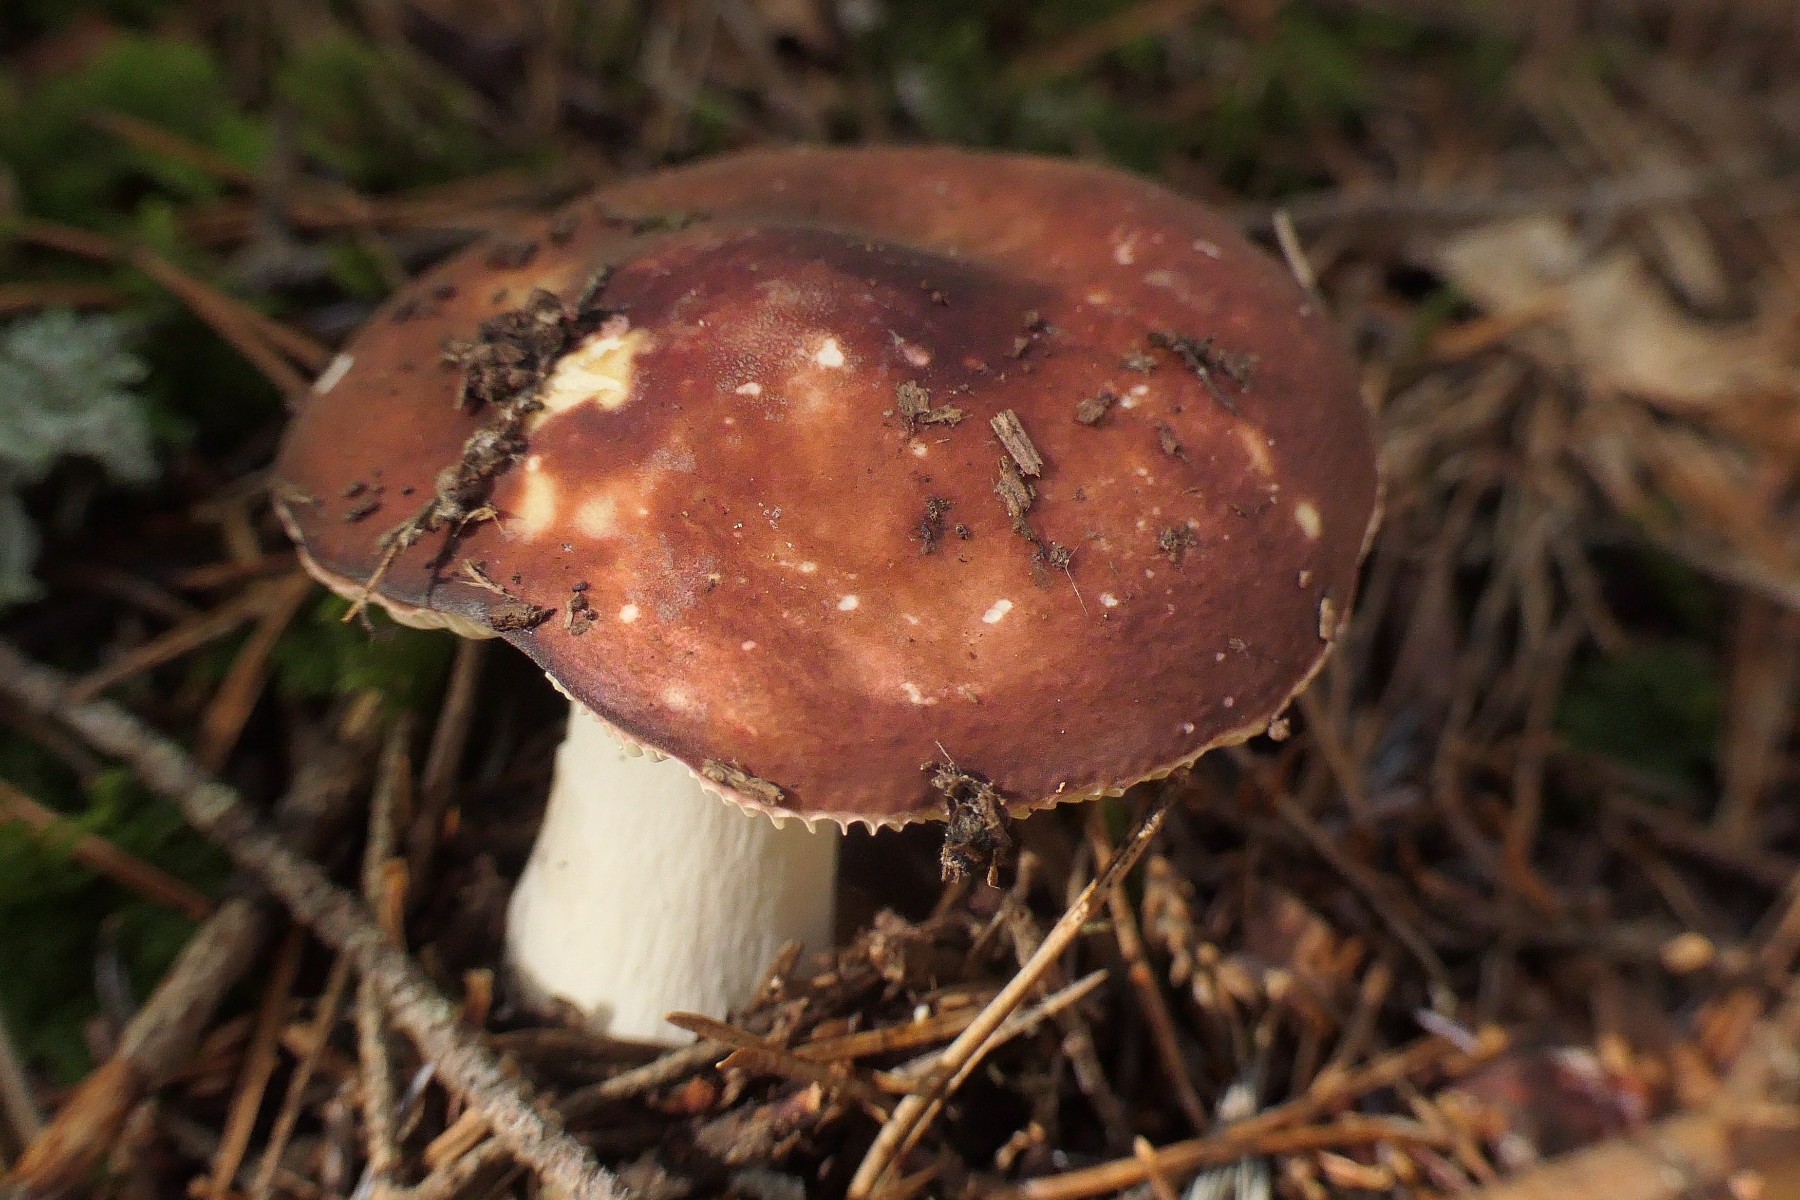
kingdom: Fungi
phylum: Basidiomycota
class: Agaricomycetes
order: Russulales
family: Russulaceae
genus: Russula
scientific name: Russula integra
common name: mandel-skørhat
